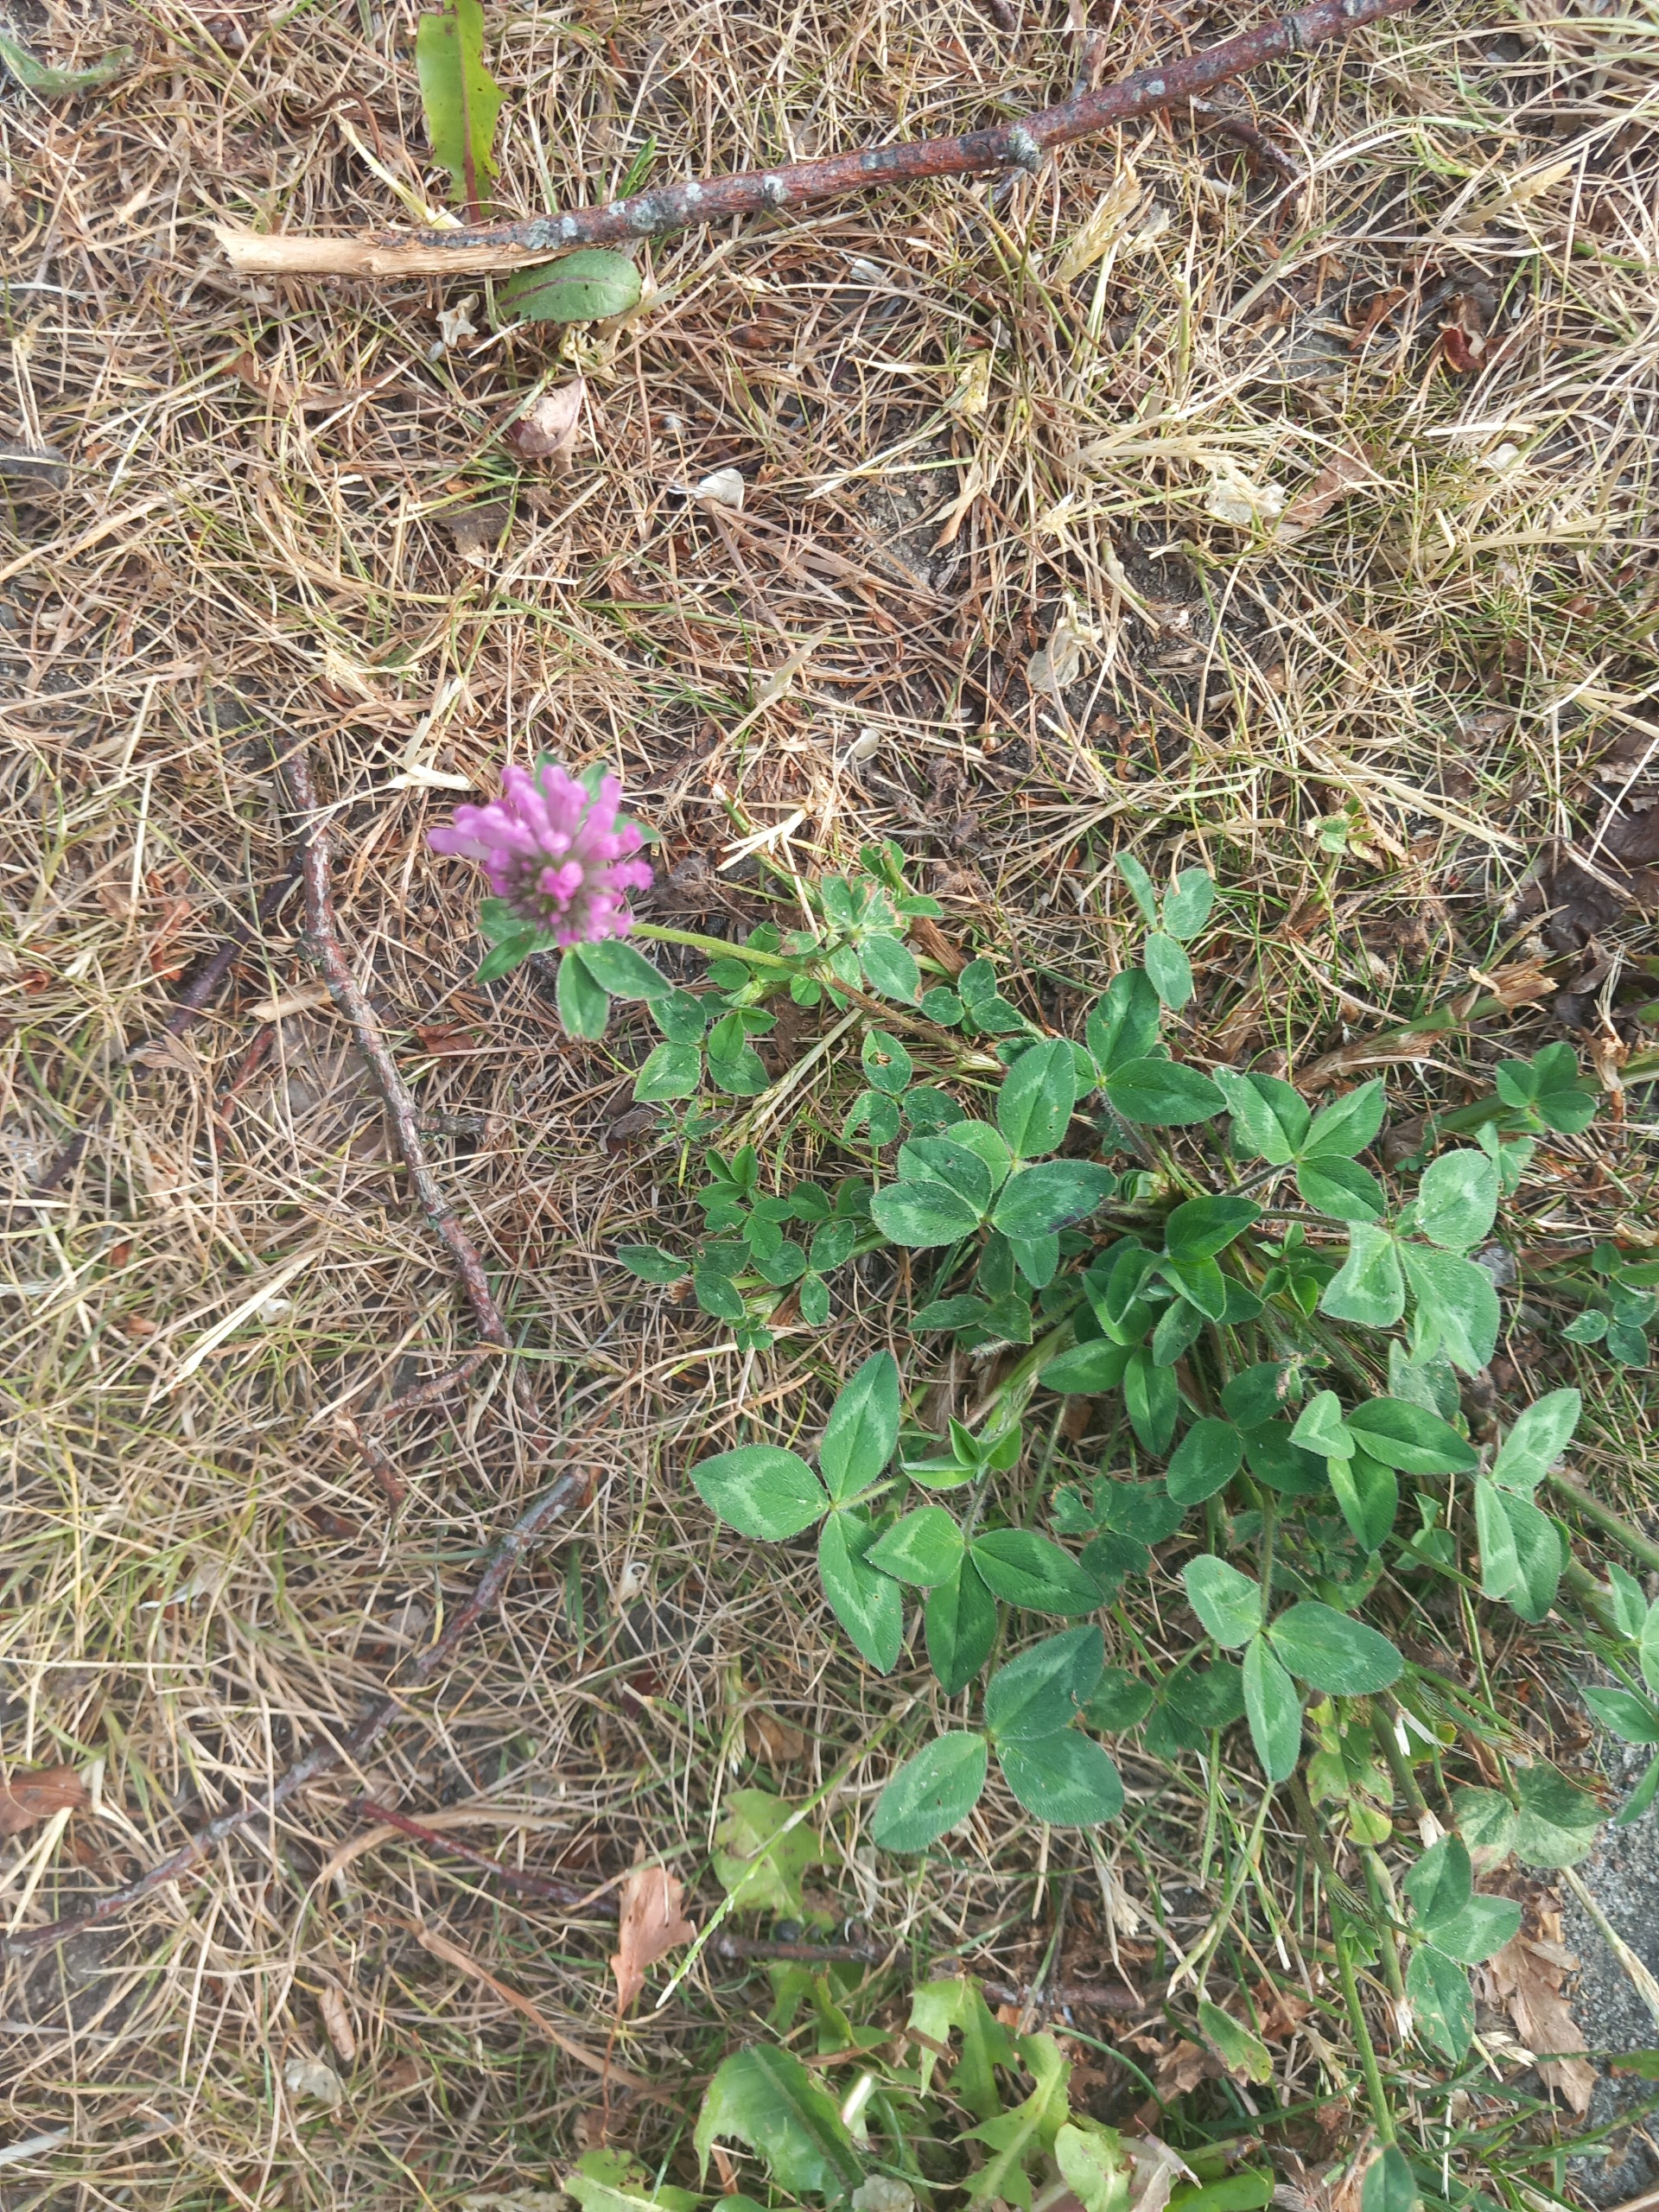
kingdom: Plantae
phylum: Tracheophyta
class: Magnoliopsida
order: Fabales
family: Fabaceae
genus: Trifolium
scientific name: Trifolium pratense
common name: Rød-kløver
